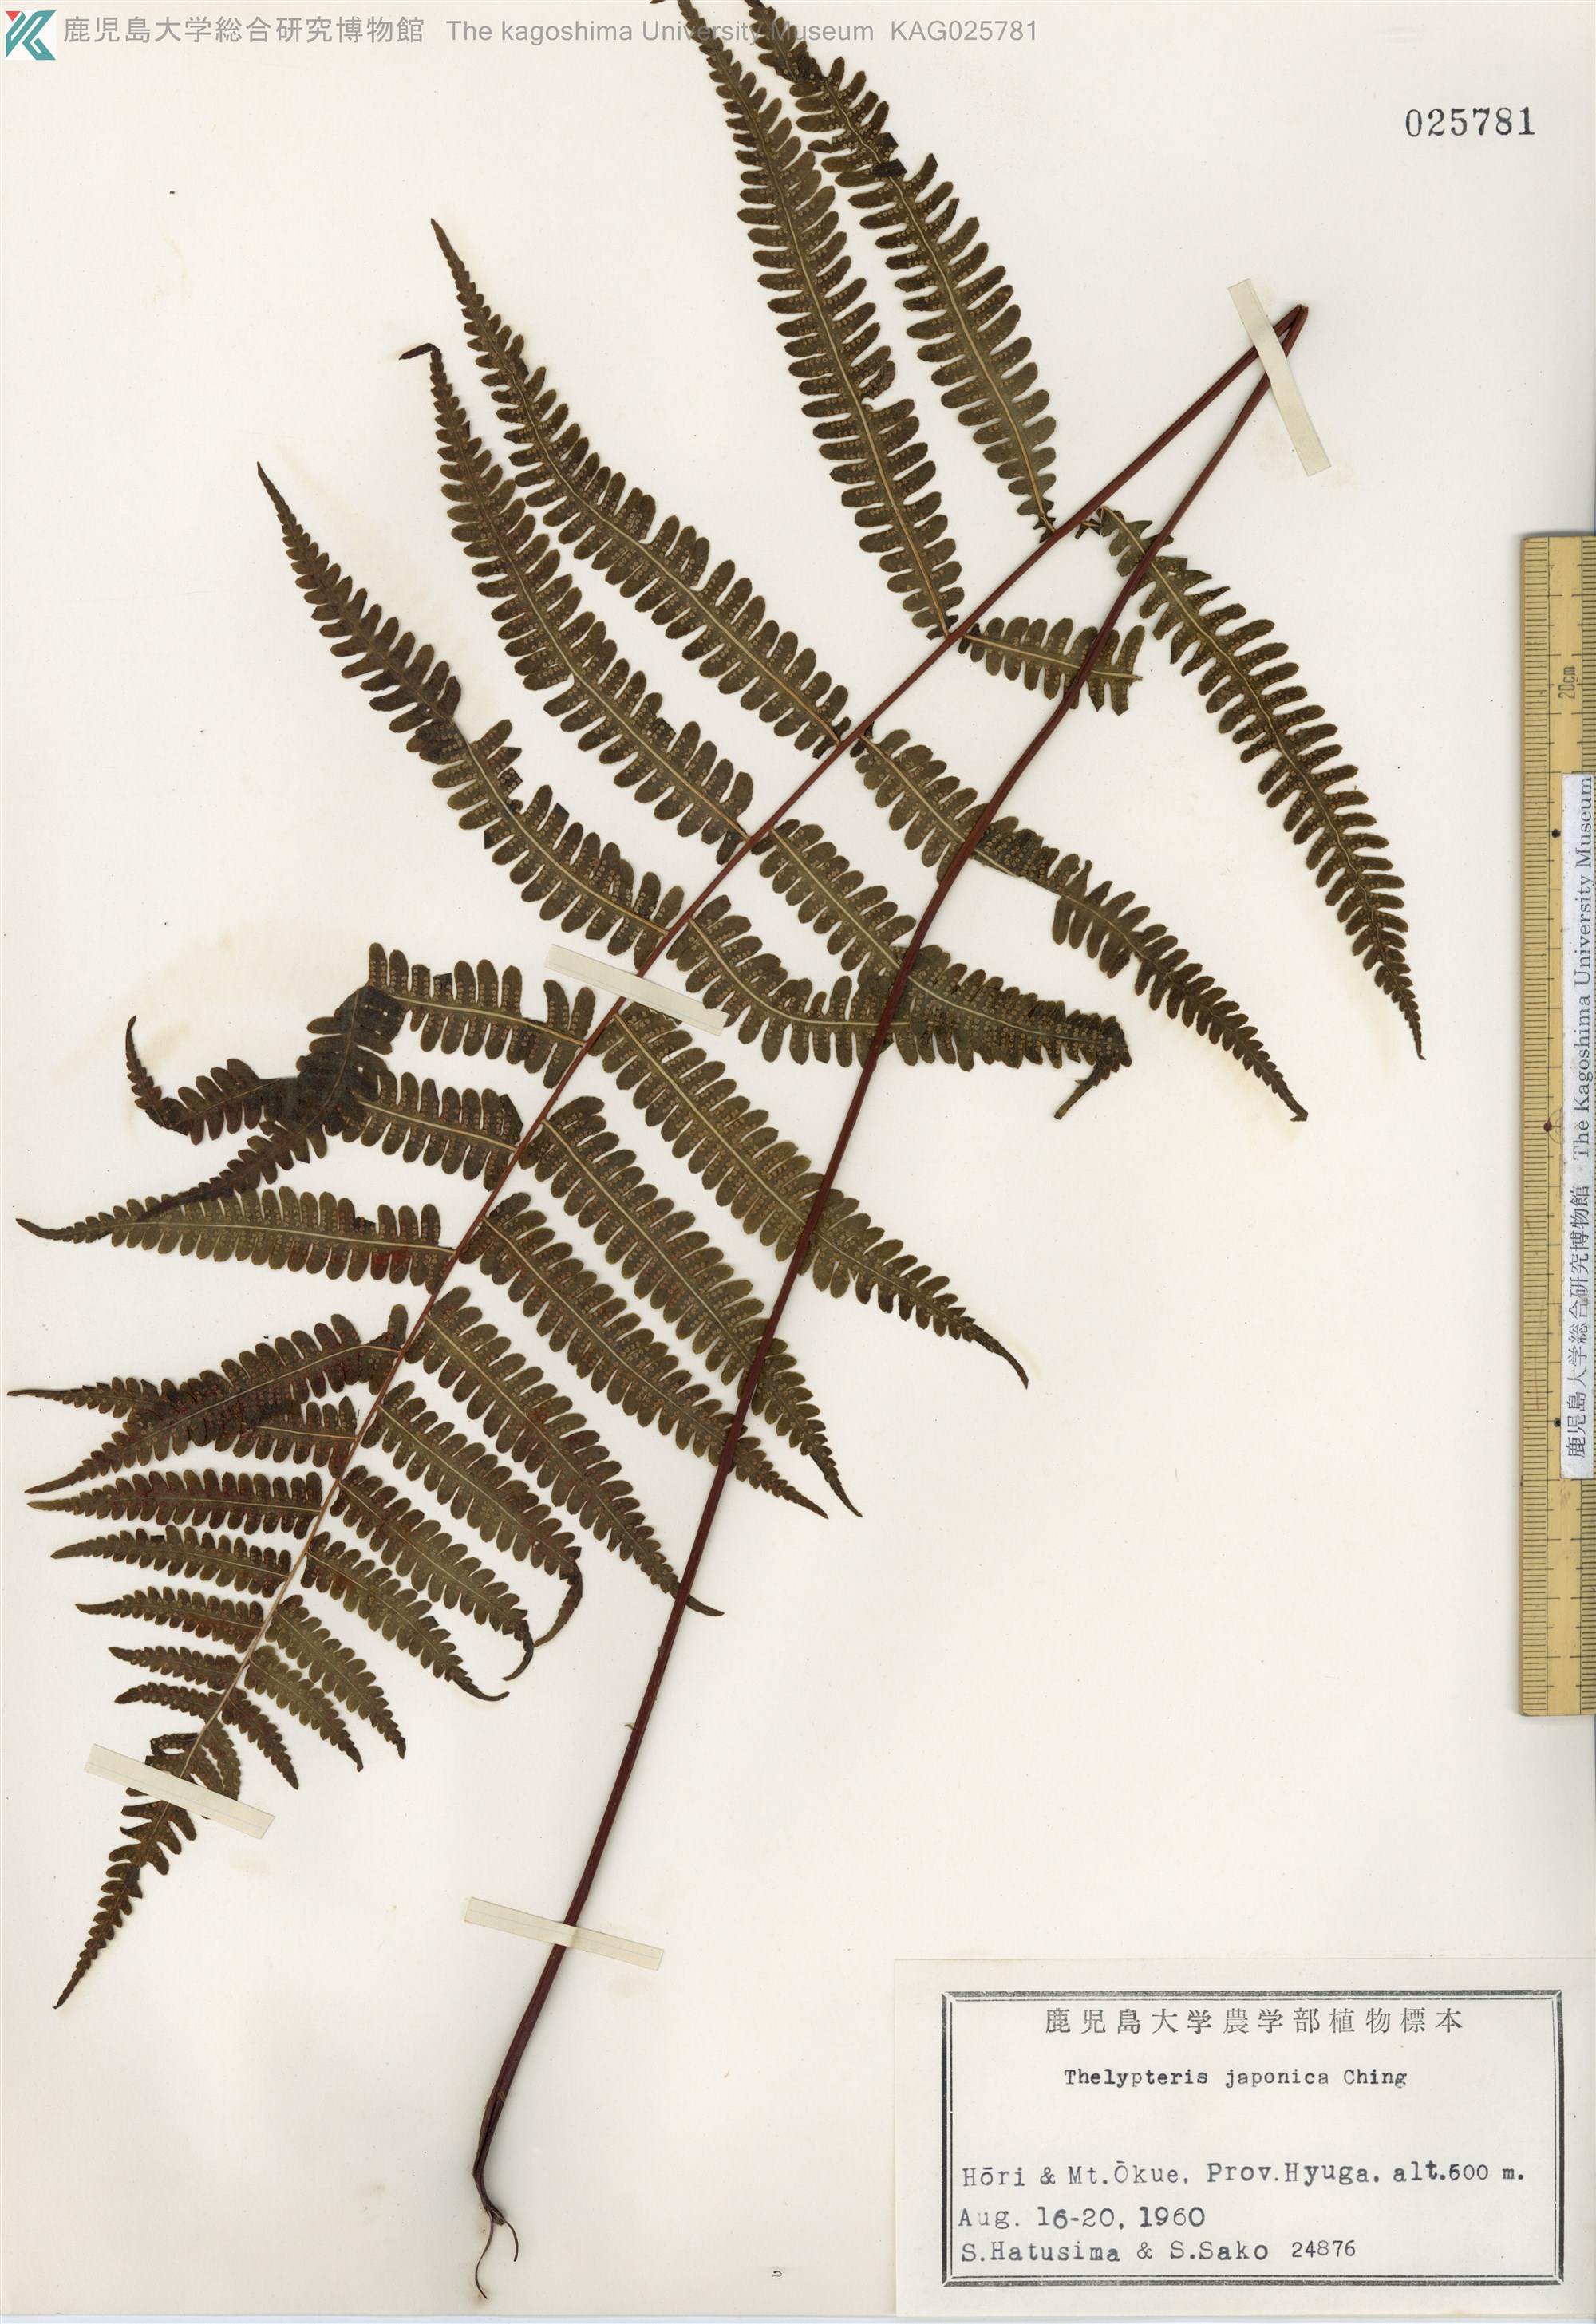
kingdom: Plantae
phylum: Tracheophyta
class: Polypodiopsida
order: Polypodiales
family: Thelypteridaceae
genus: Coryphopteris
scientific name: Coryphopteris japonica
